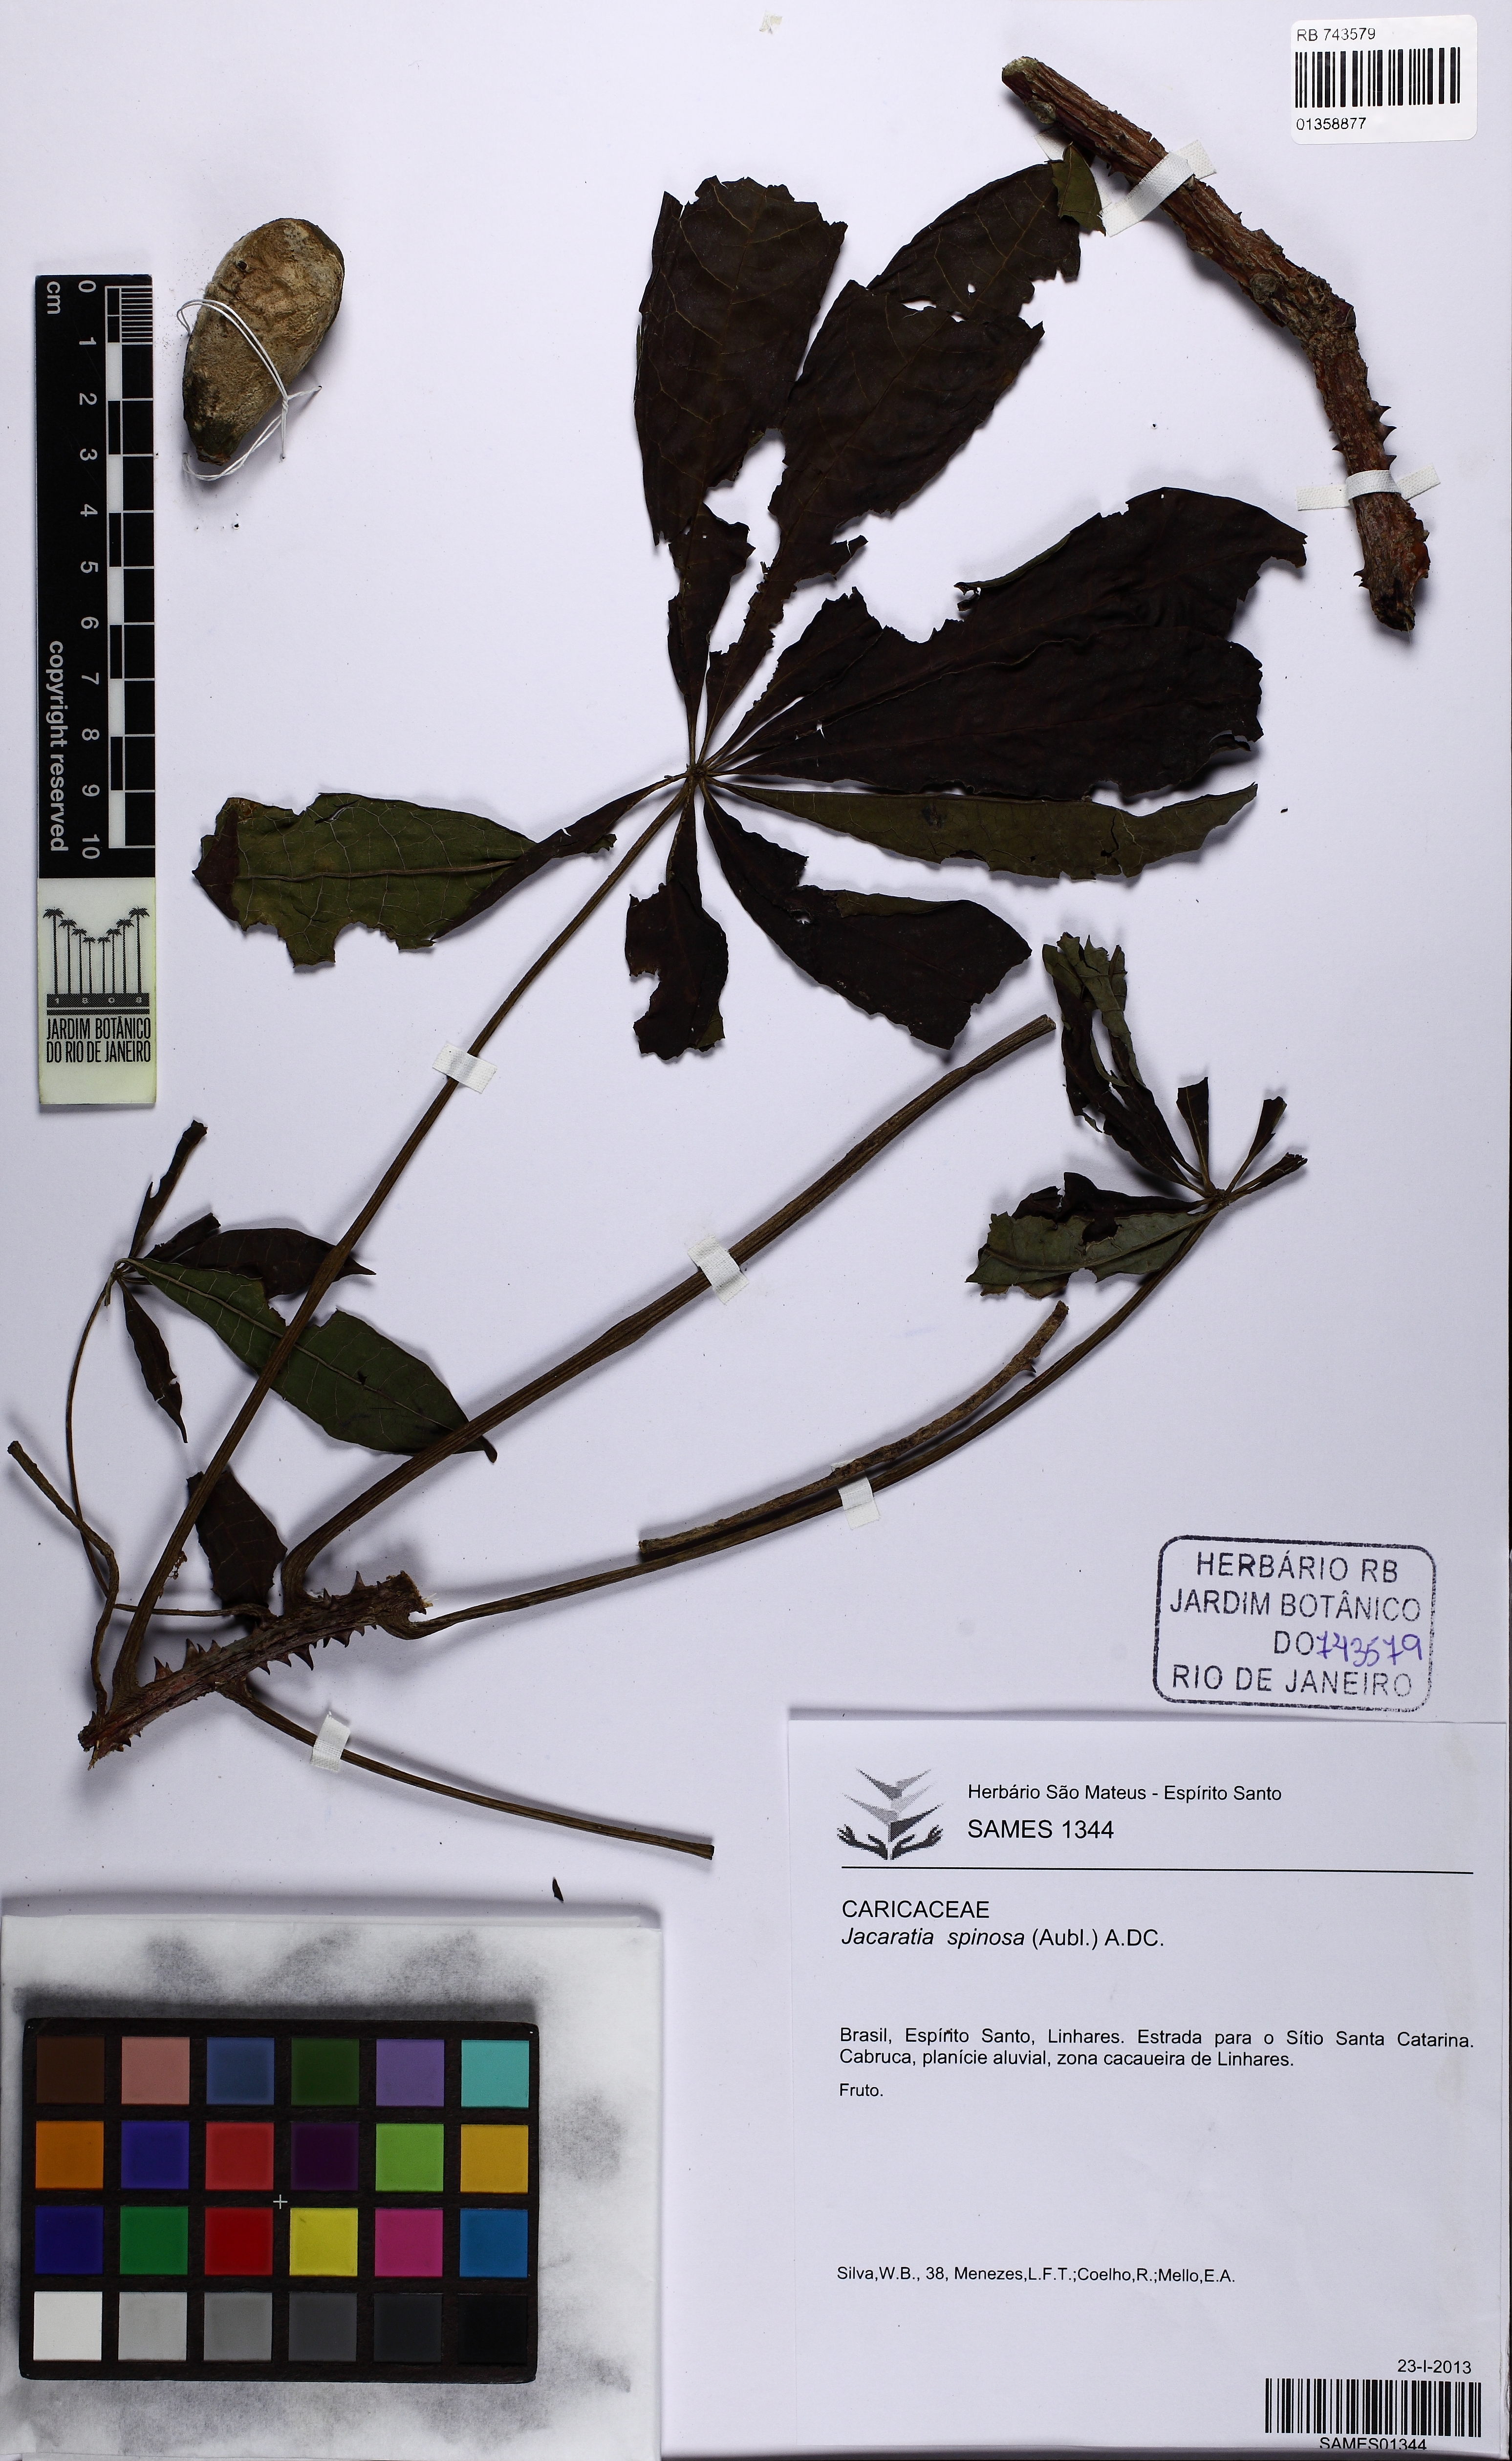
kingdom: Plantae
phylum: Tracheophyta
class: Magnoliopsida
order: Brassicales
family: Caricaceae
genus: Jacaratia
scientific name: Jacaratia spinosa
